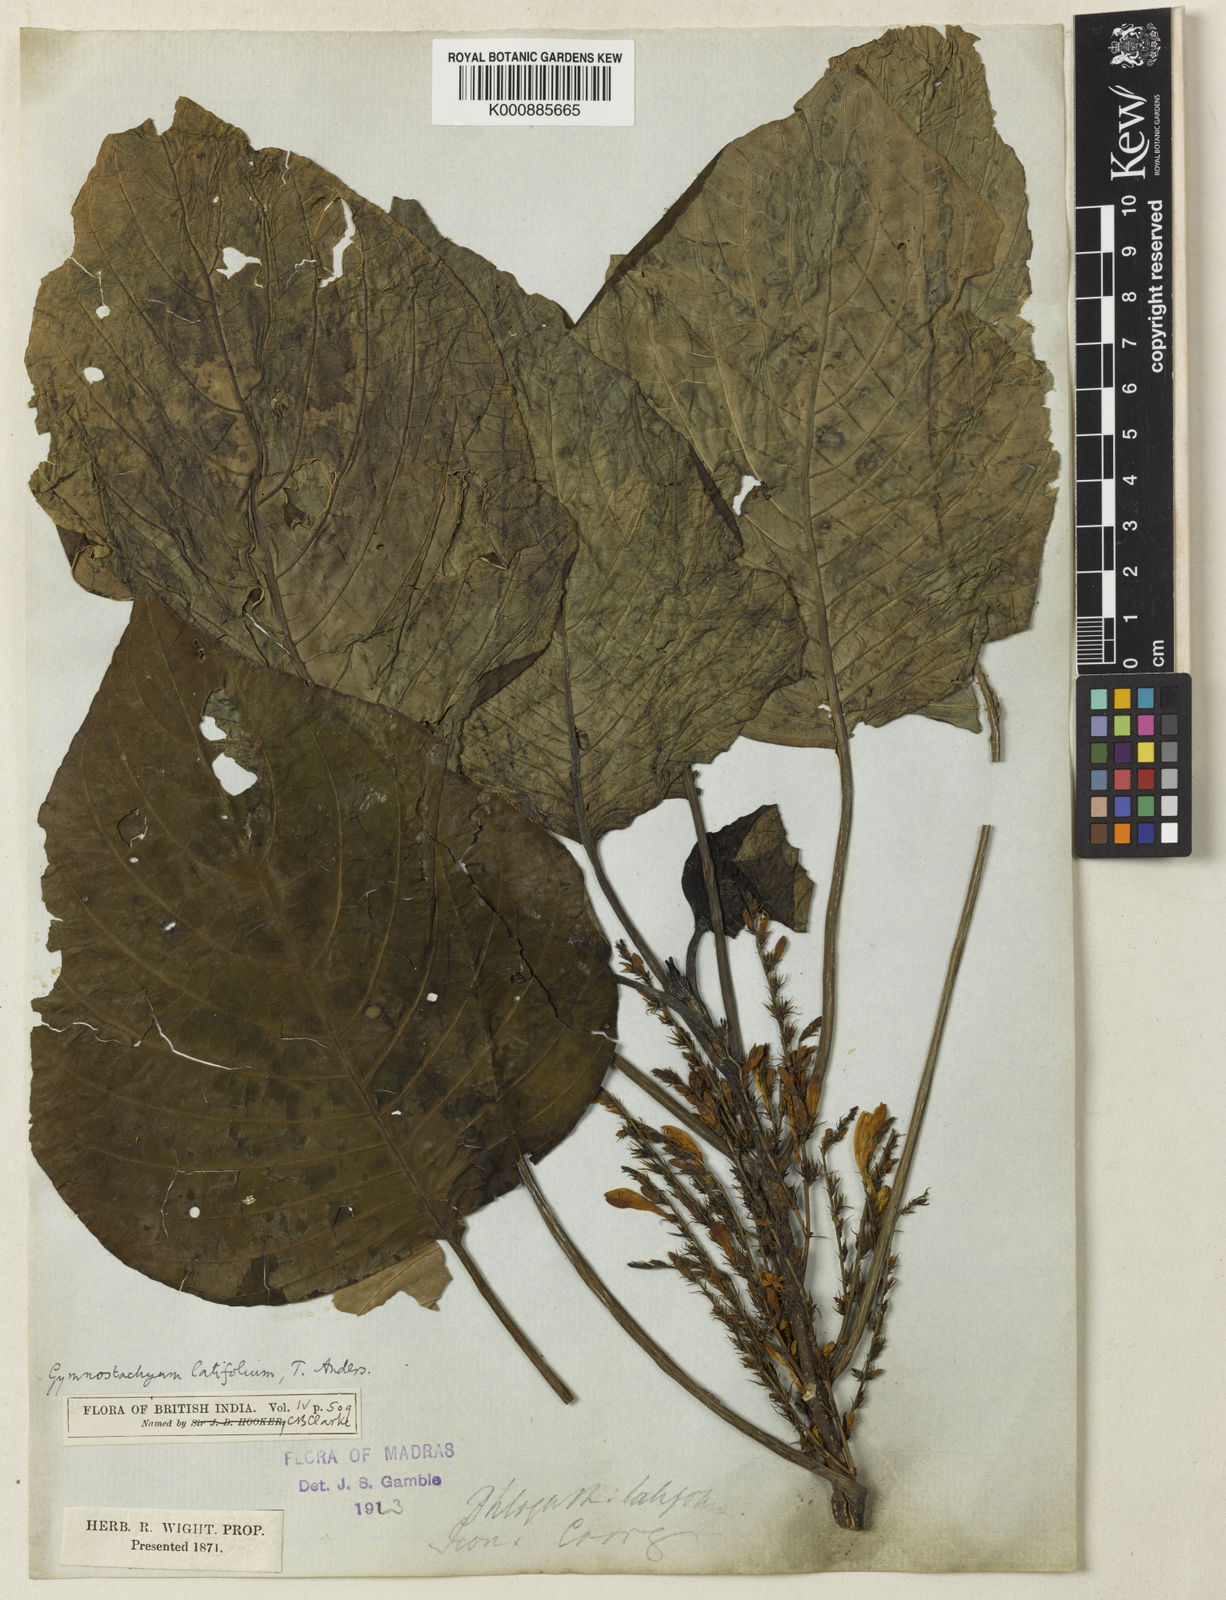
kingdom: Plantae
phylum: Tracheophyta
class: Magnoliopsida
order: Lamiales
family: Acanthaceae
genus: Gymnostachyum
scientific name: Gymnostachyum latifolium
